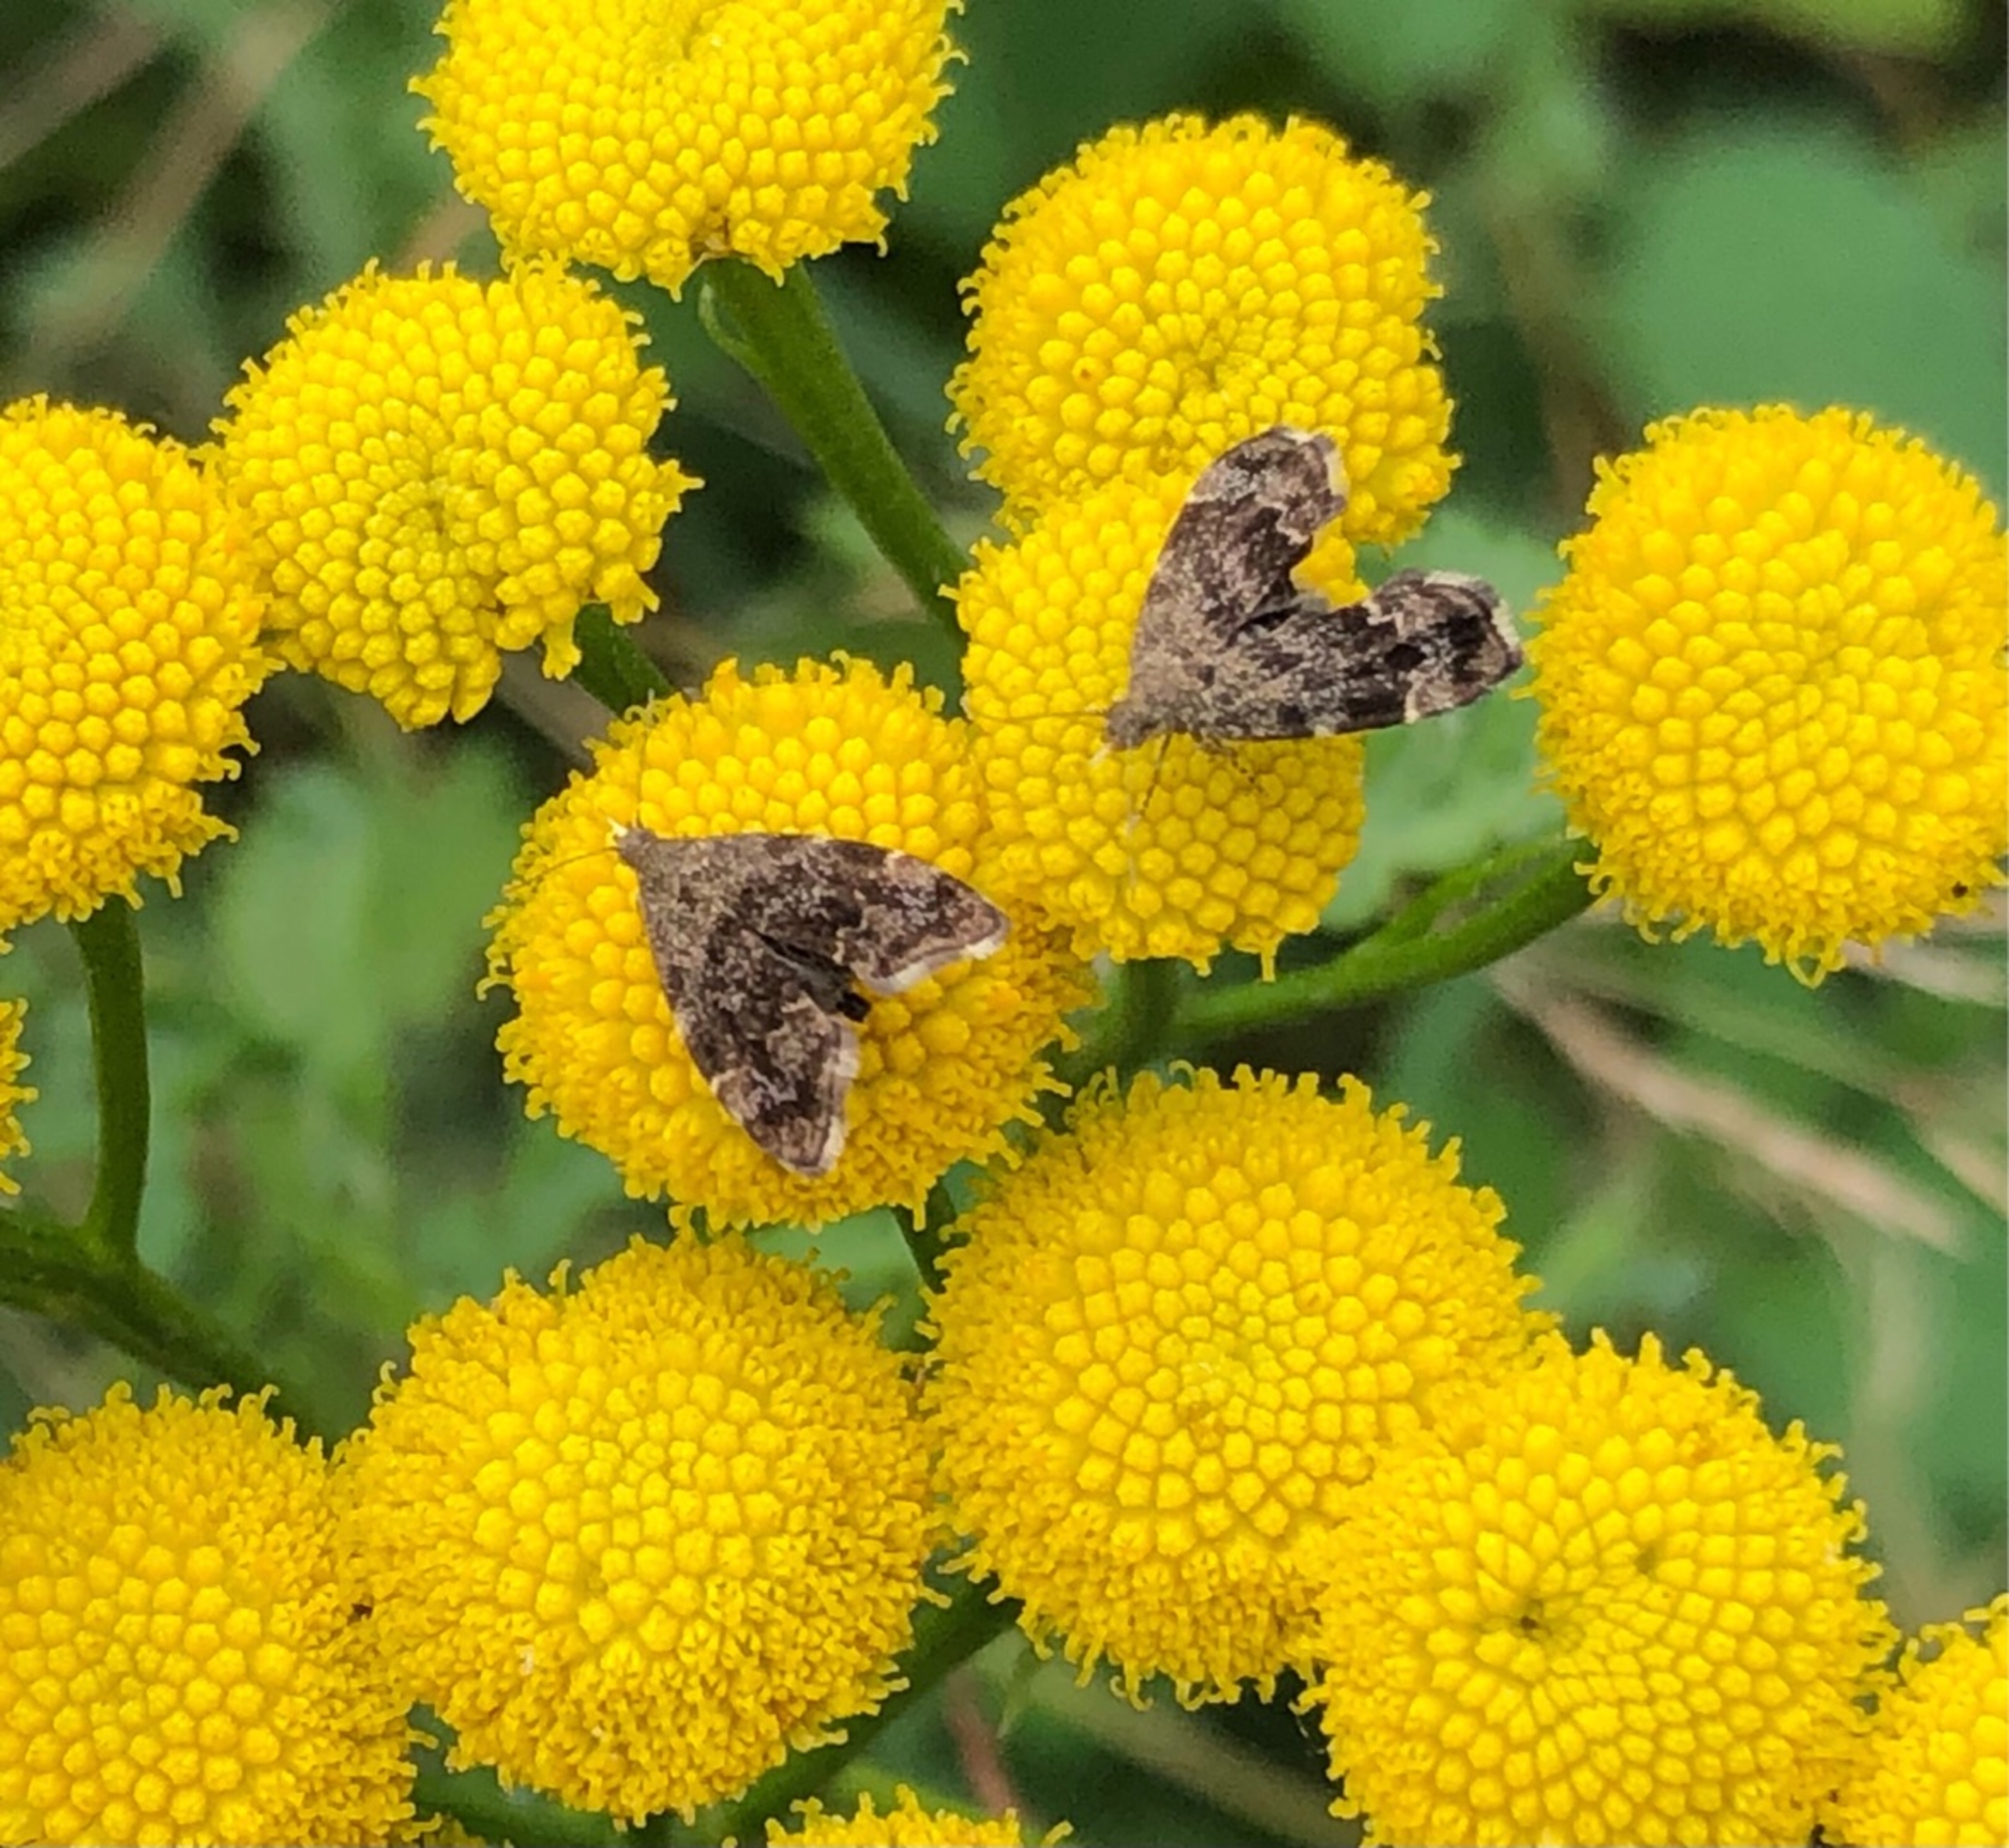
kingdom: Animalia
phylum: Arthropoda
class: Insecta
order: Lepidoptera
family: Choreutidae
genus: Anthophila
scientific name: Anthophila fabriciana
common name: Bredvinget nældevikler
